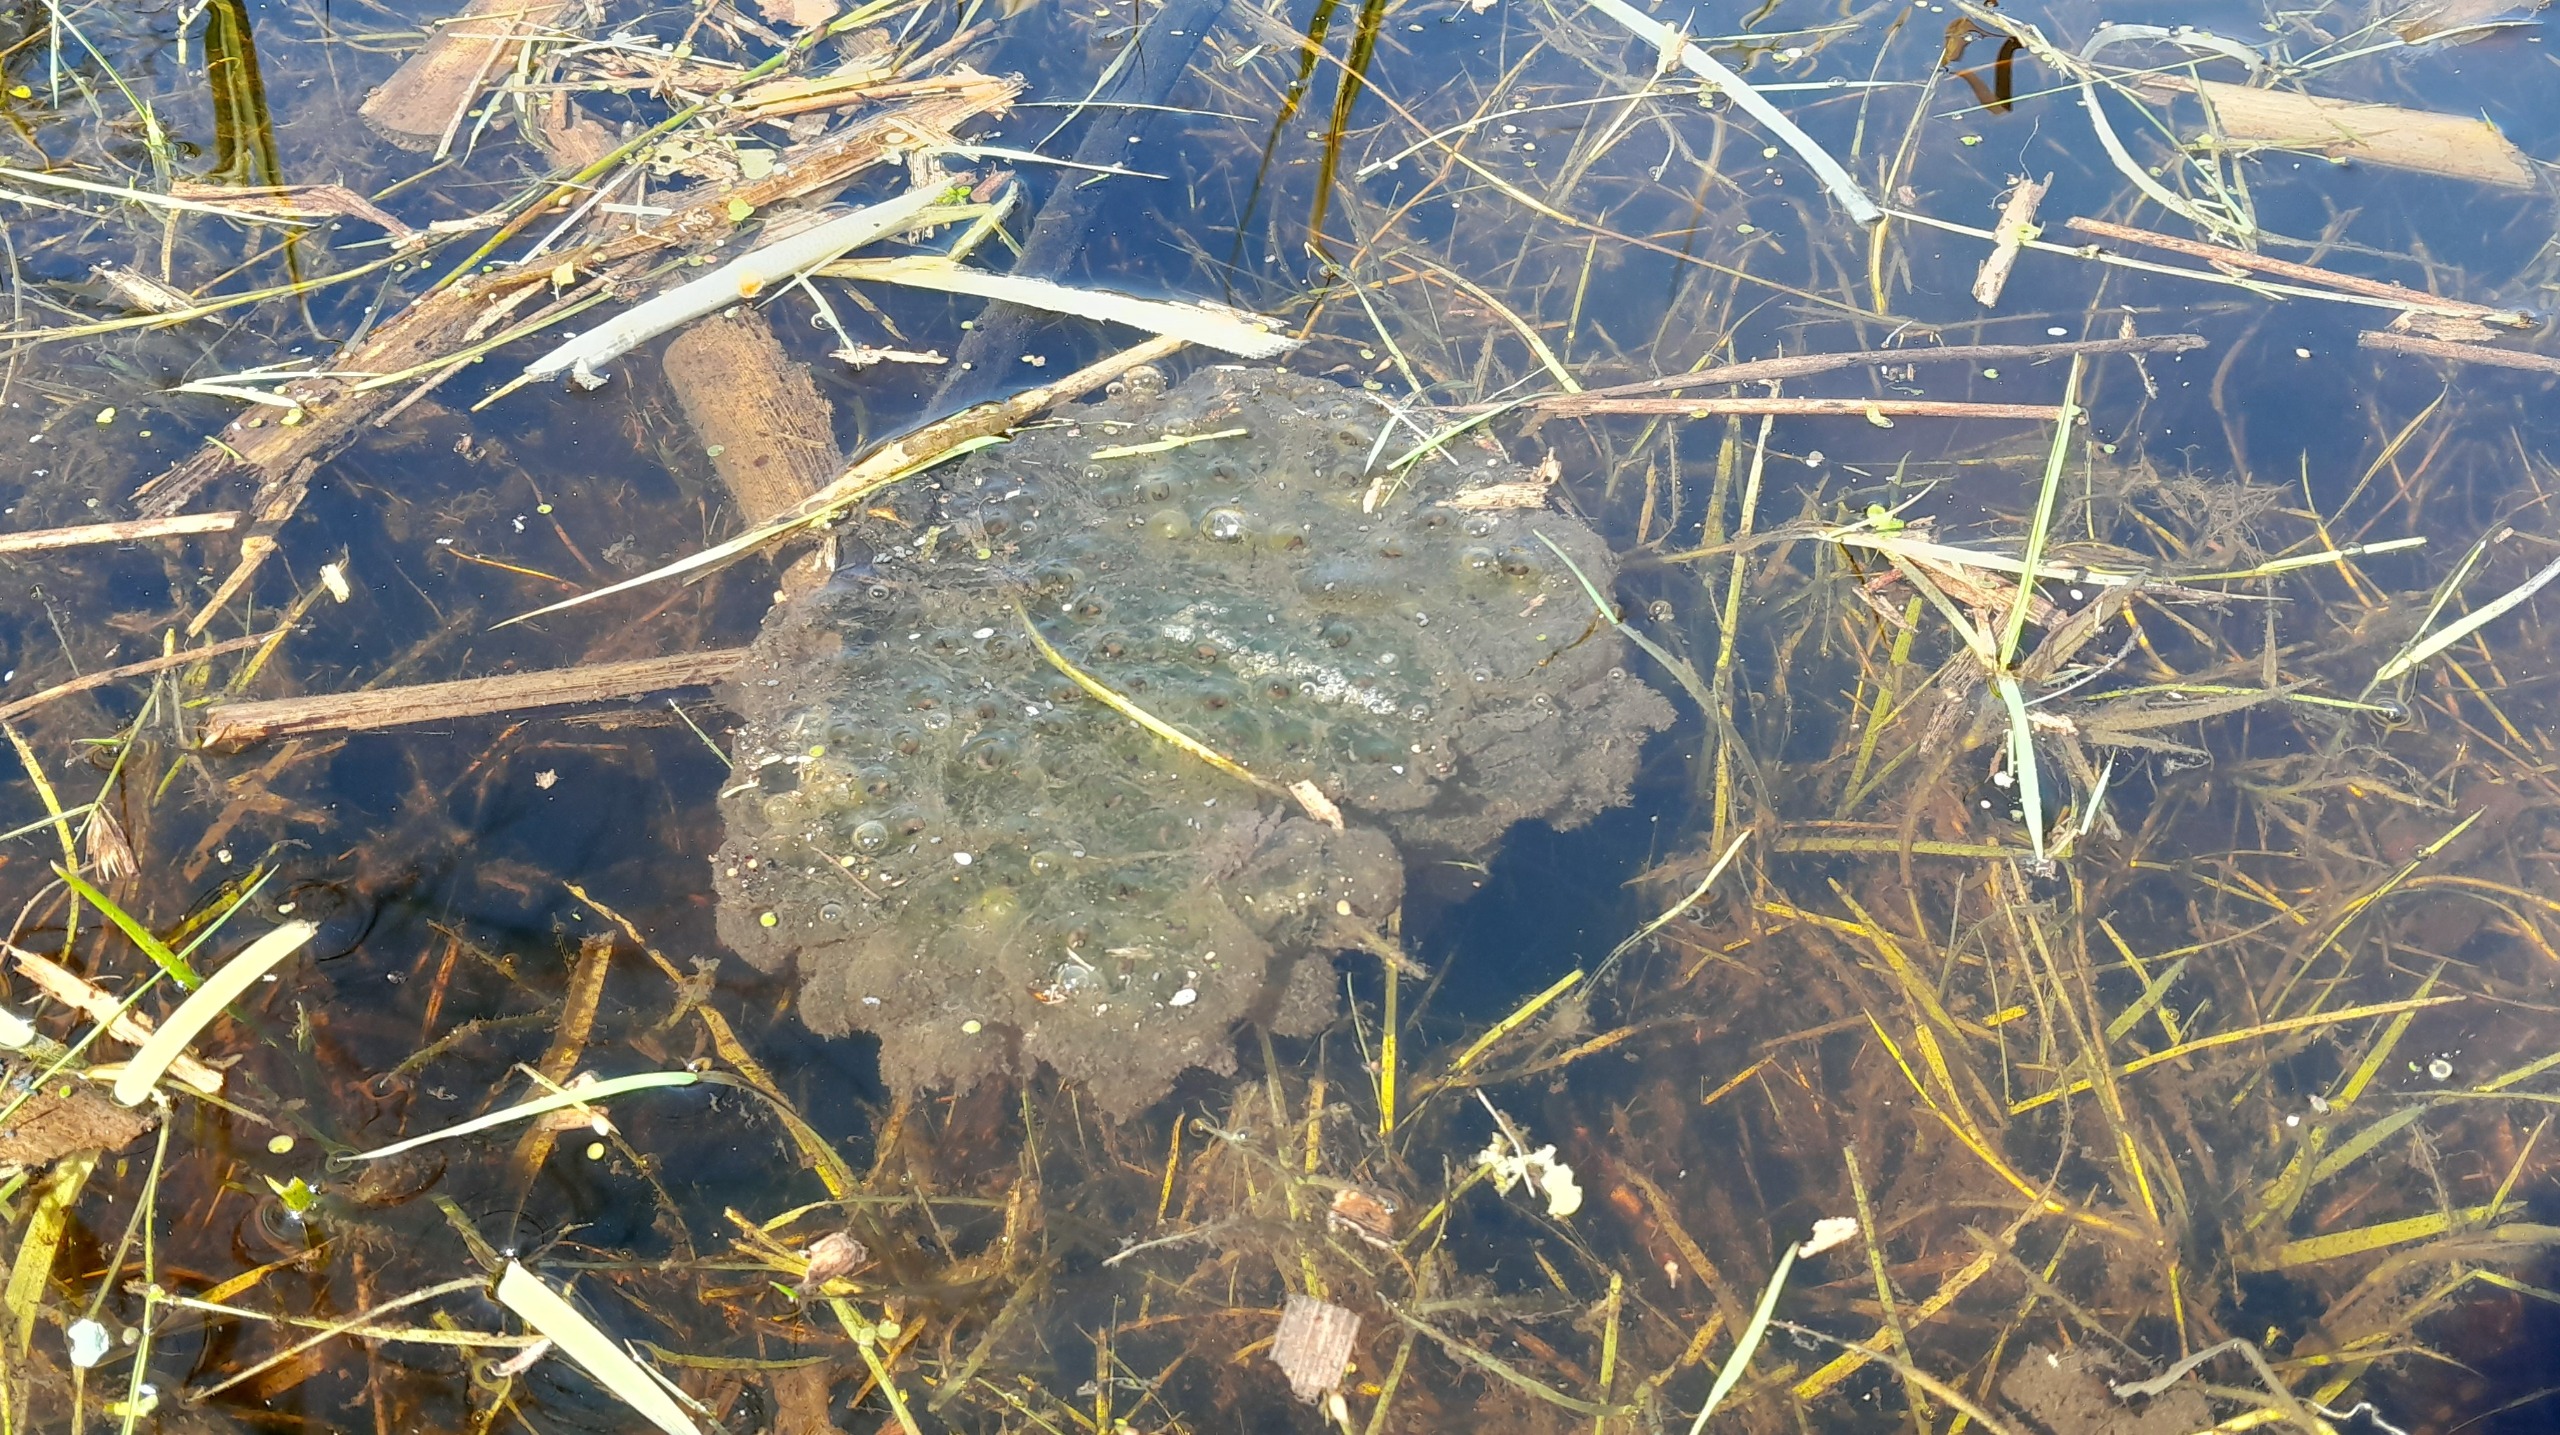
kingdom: Animalia
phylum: Chordata
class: Amphibia
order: Anura
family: Ranidae
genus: Rana
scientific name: Rana dalmatina
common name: Springfrø
